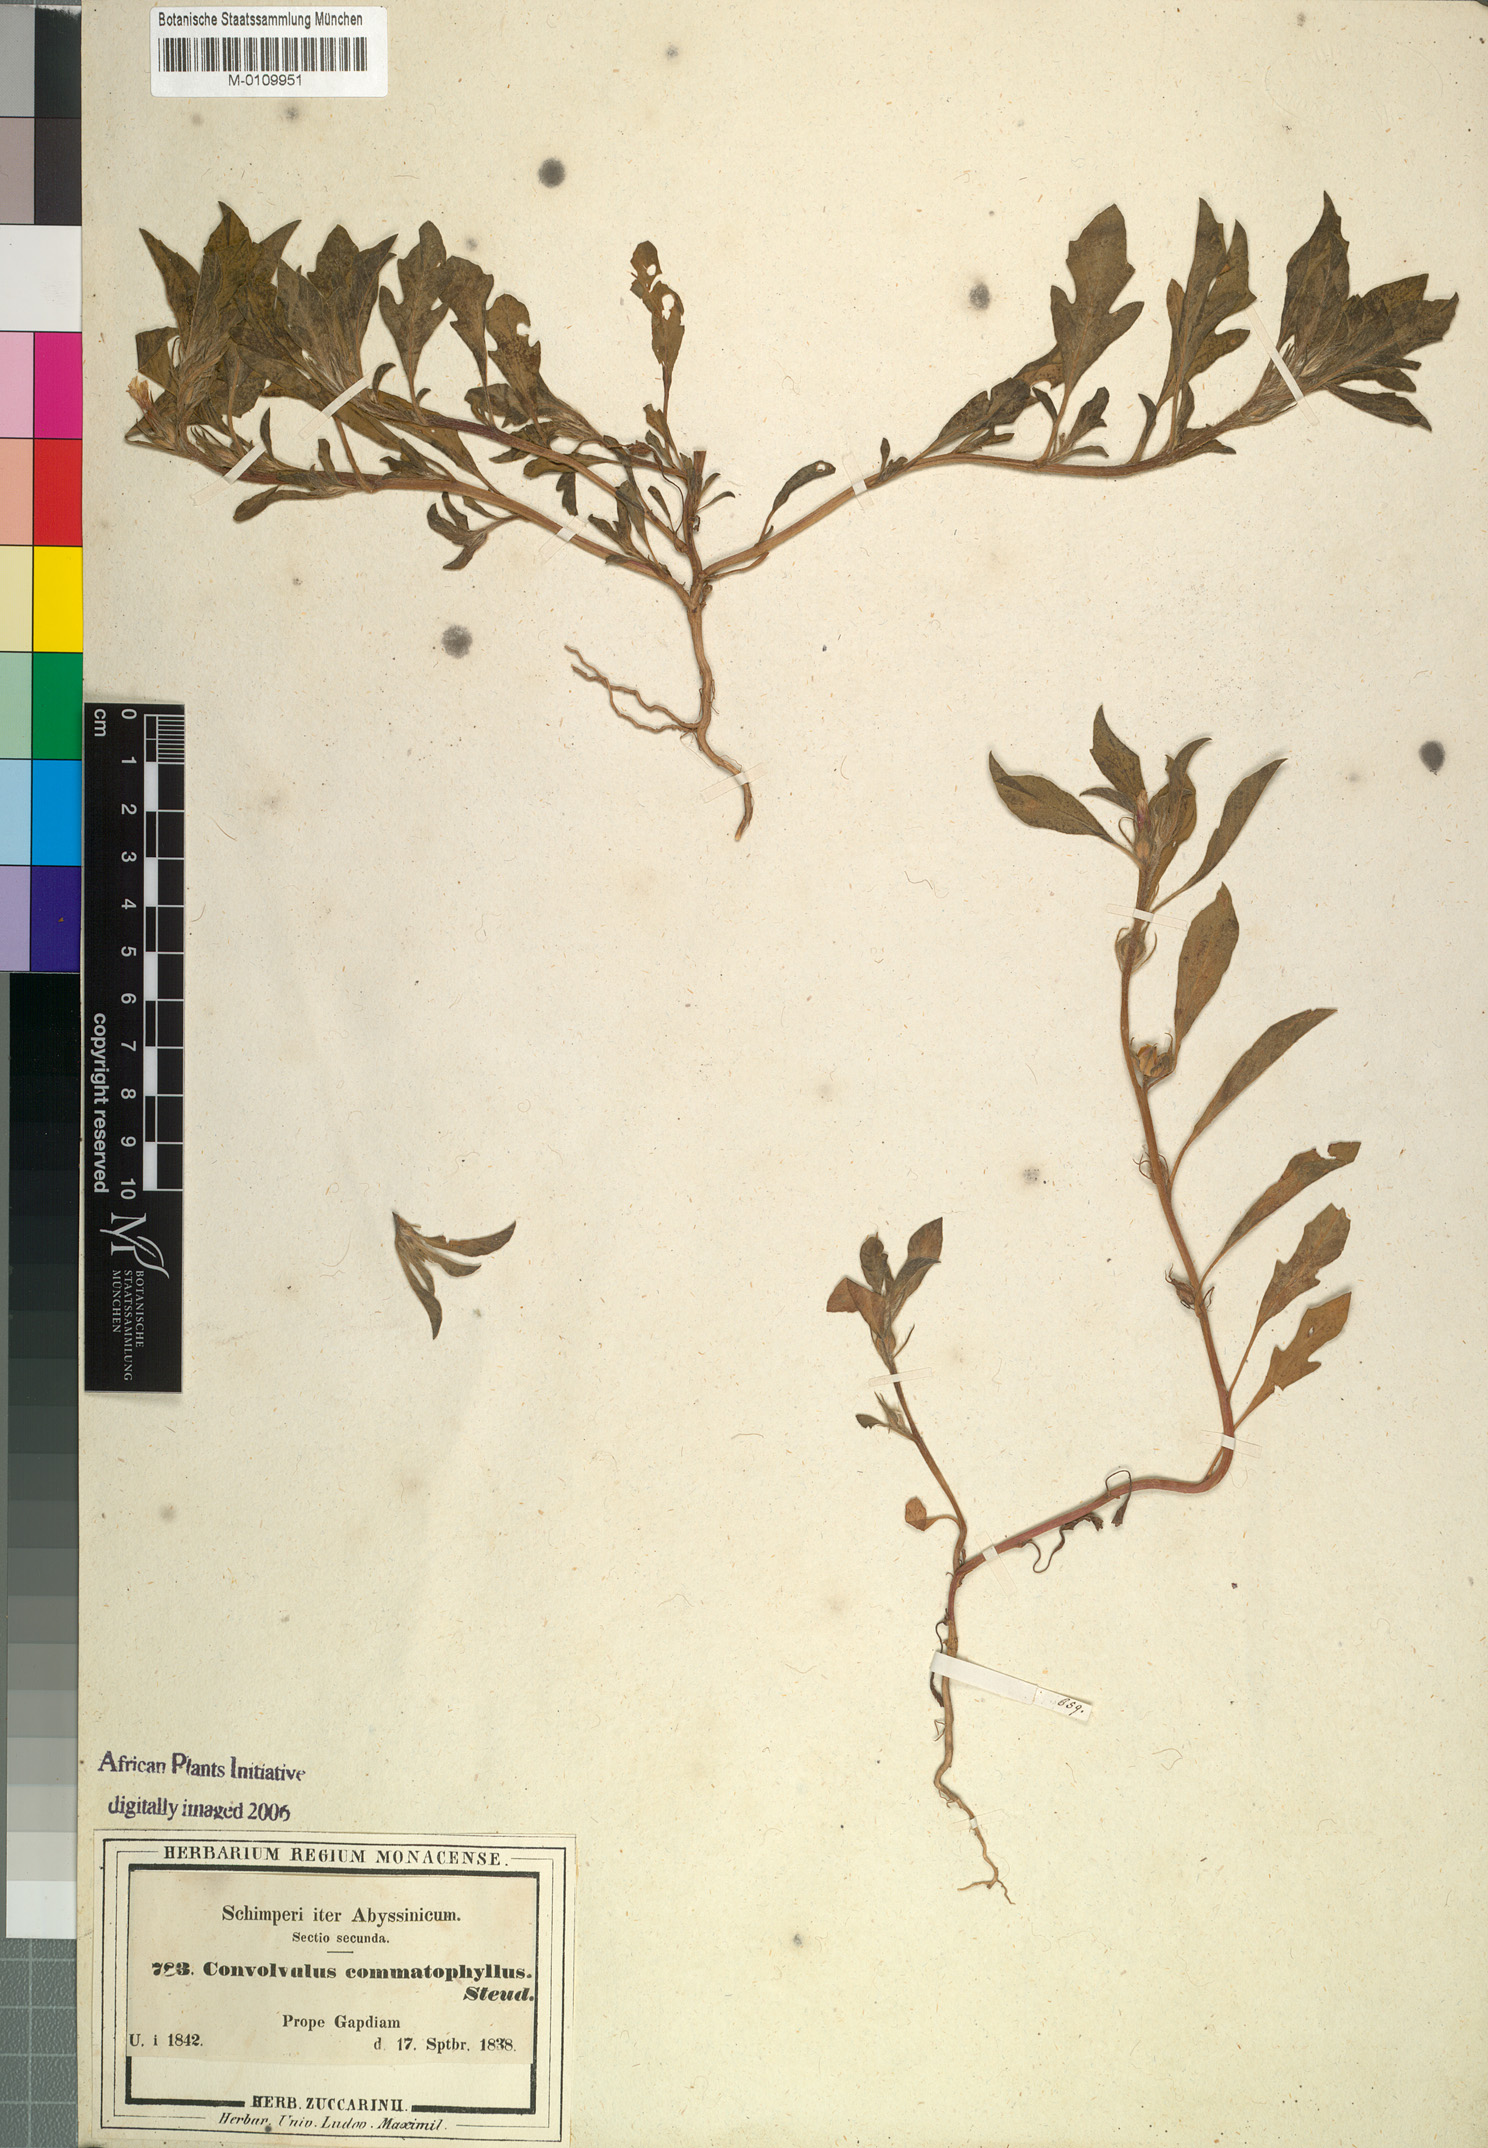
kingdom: Plantae
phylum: Tracheophyta
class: Magnoliopsida
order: Solanales
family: Convolvulaceae
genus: Ipomoea
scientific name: Ipomoea polymorpha
